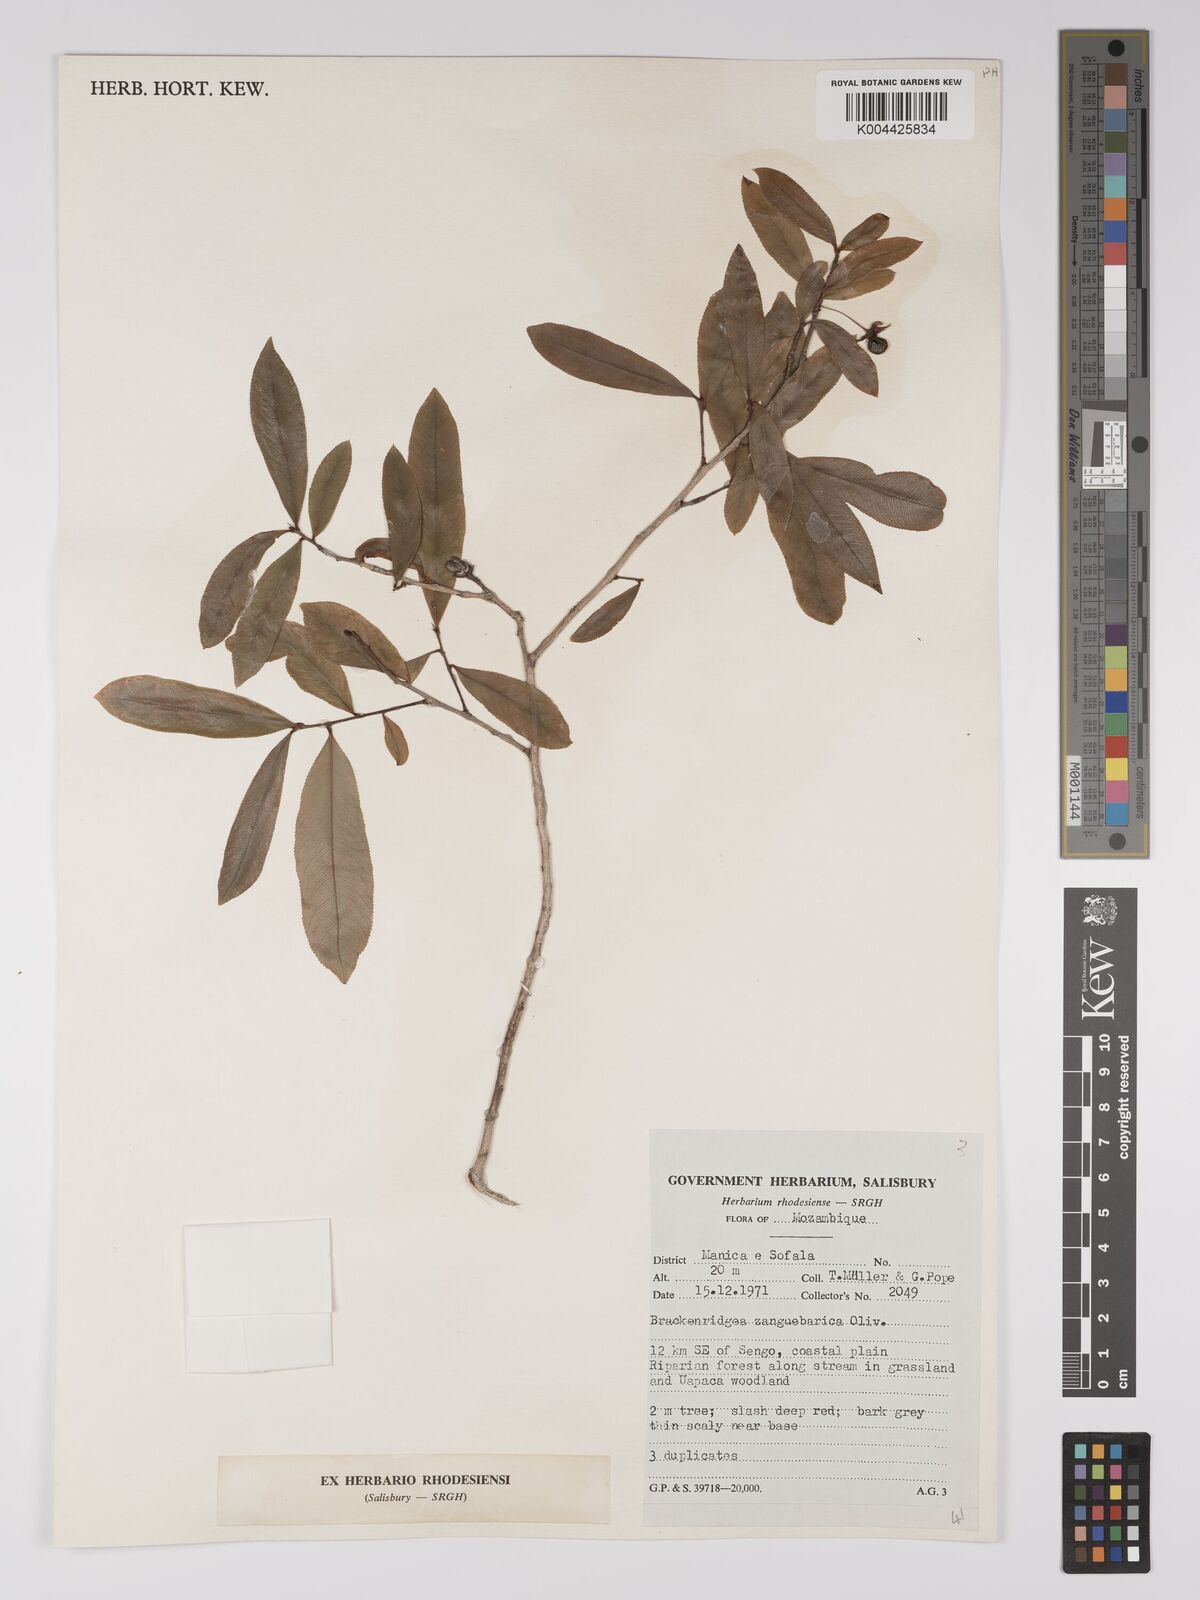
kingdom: Plantae
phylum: Tracheophyta
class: Magnoliopsida
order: Malpighiales
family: Ochnaceae
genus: Brackenridgea
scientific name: Brackenridgea zanguebarica
